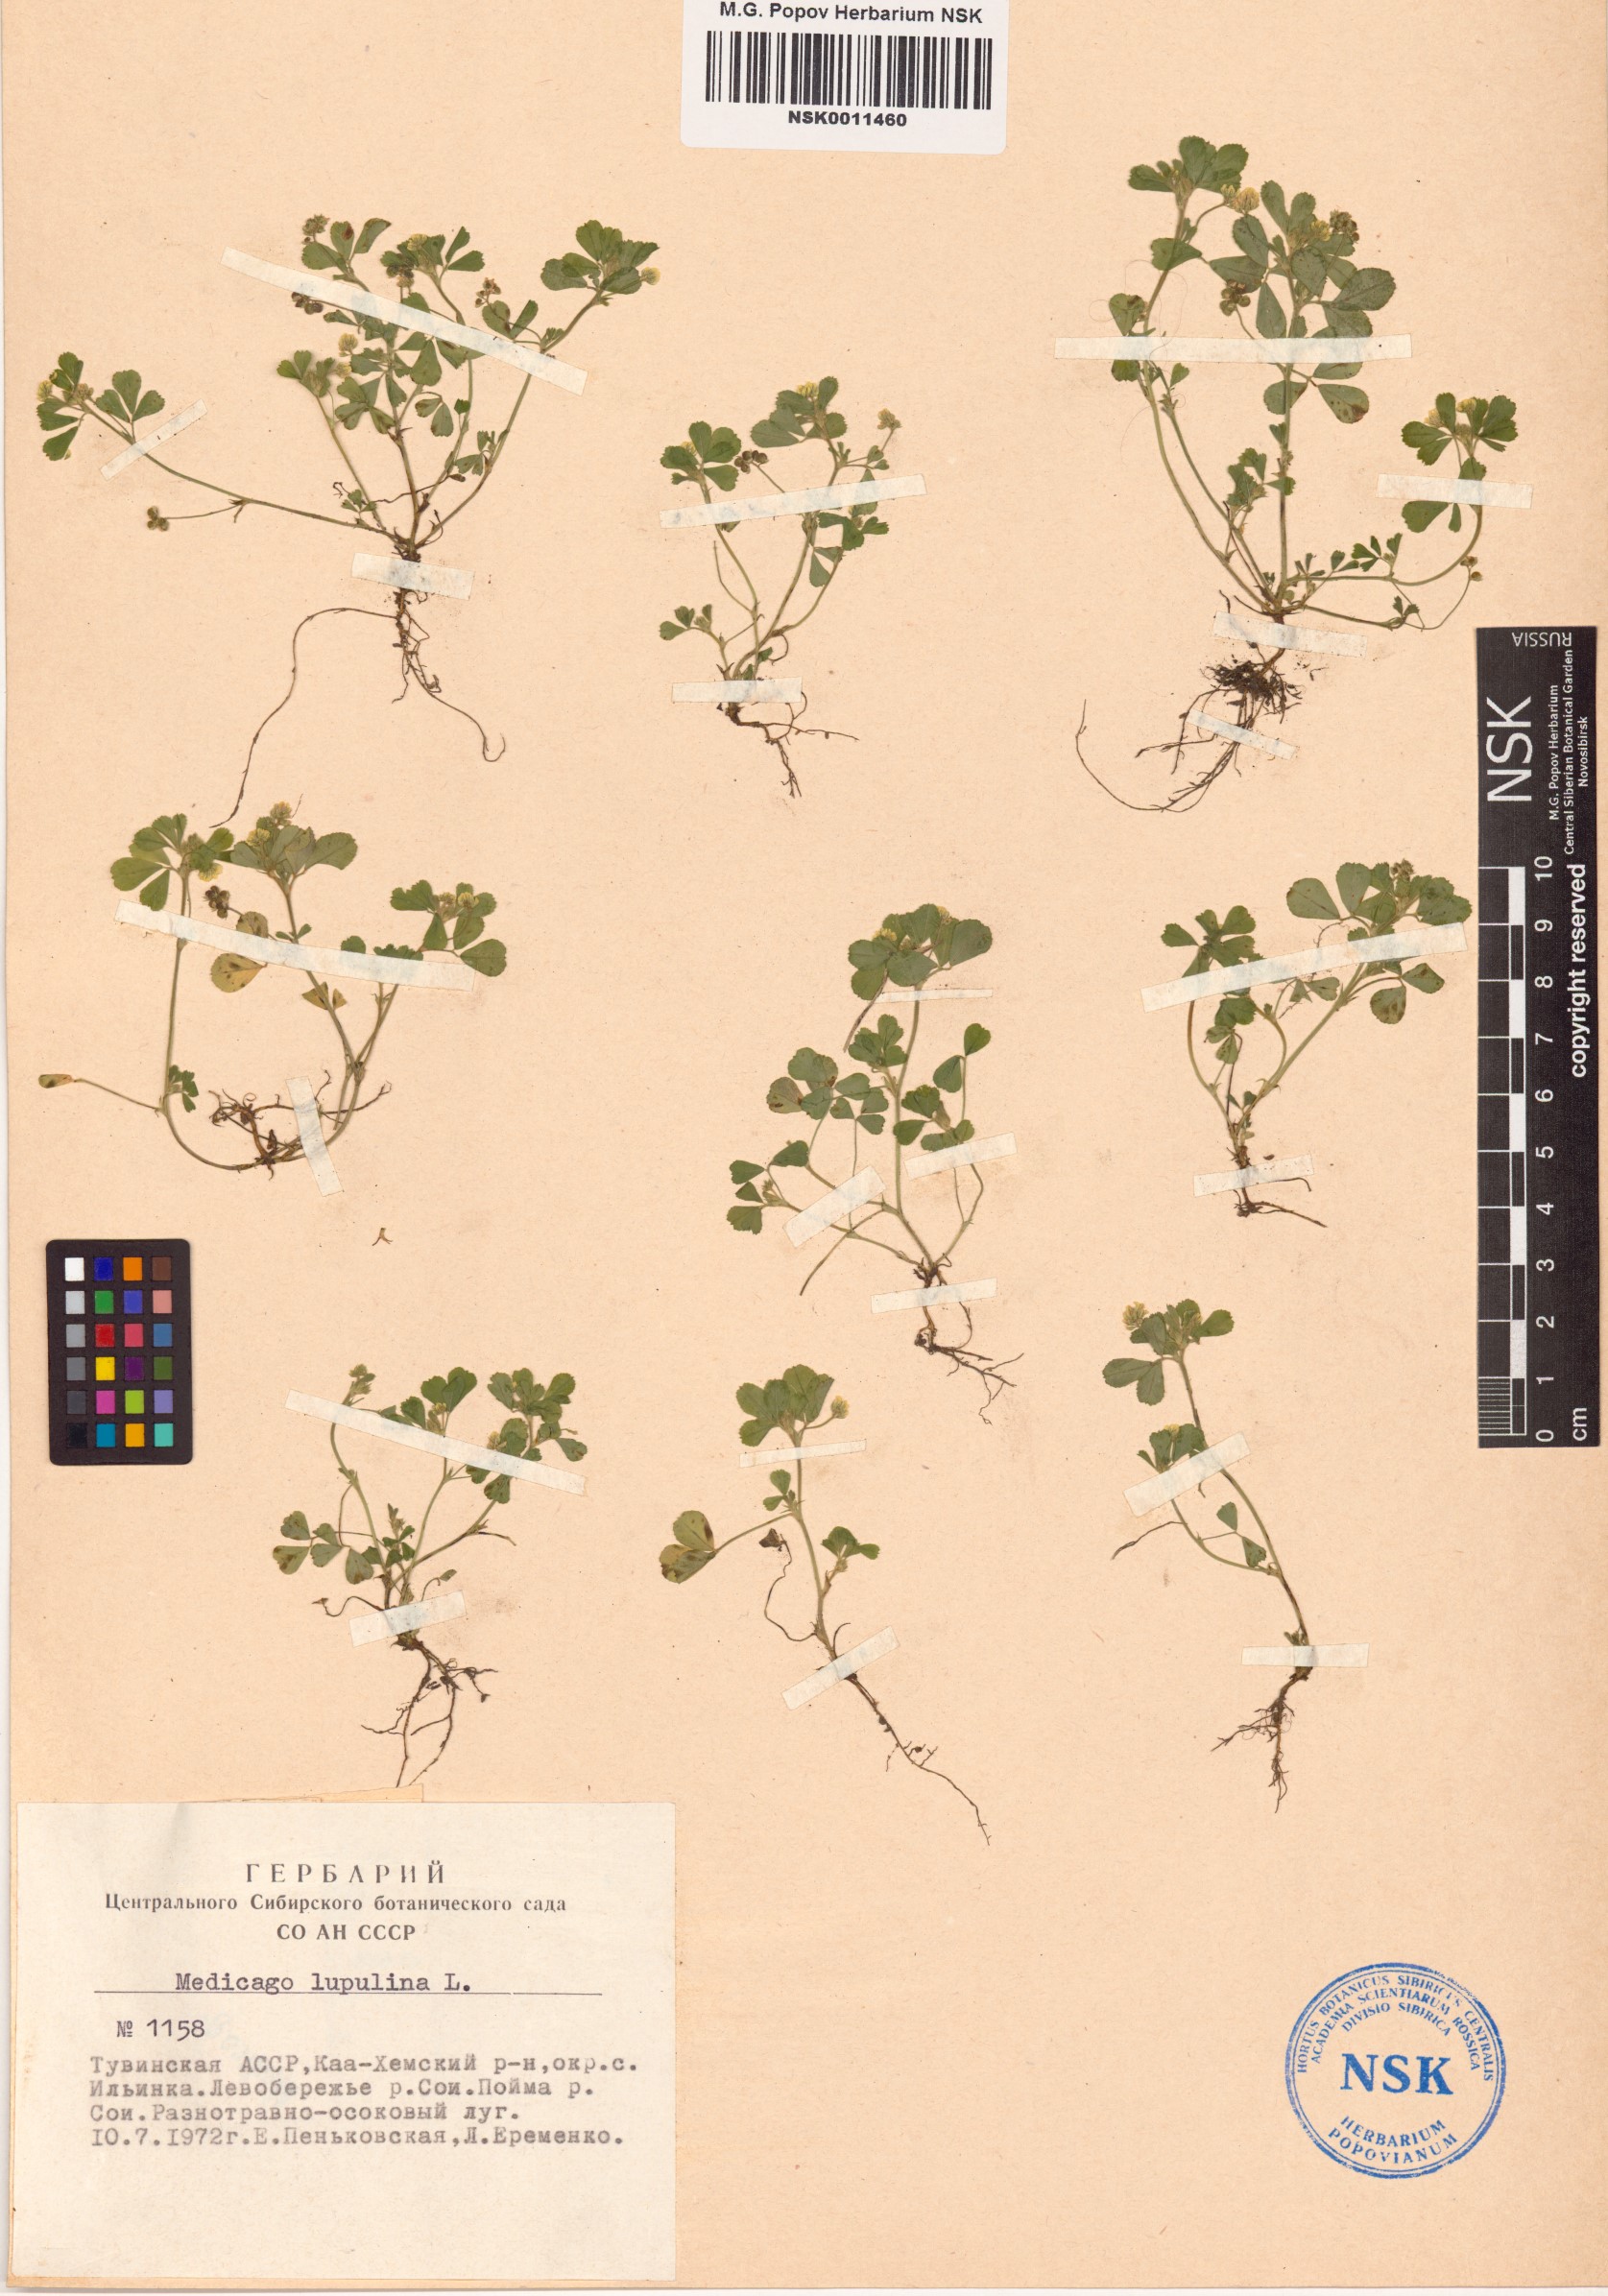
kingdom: Plantae
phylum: Tracheophyta
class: Magnoliopsida
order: Fabales
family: Fabaceae
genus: Medicago
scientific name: Medicago lupulina
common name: Black medick
